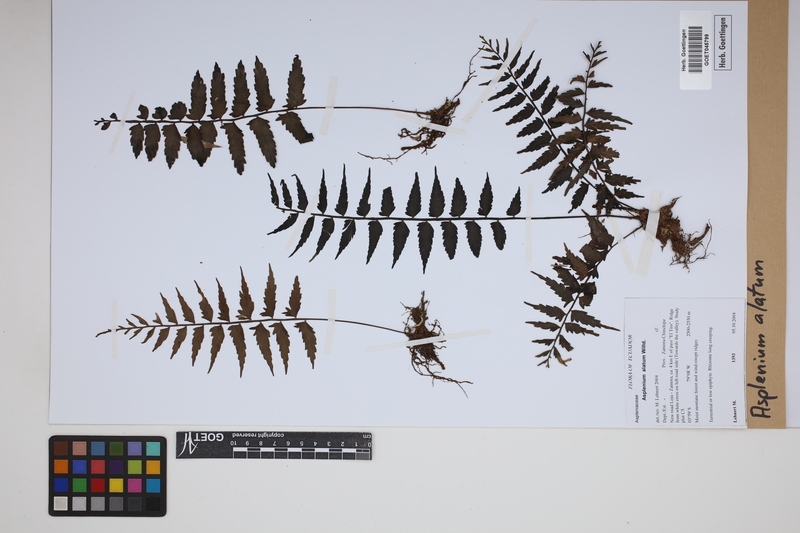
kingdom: Plantae
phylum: Tracheophyta
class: Polypodiopsida
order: Polypodiales
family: Aspleniaceae
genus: Asplenium
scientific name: Asplenium alatum
